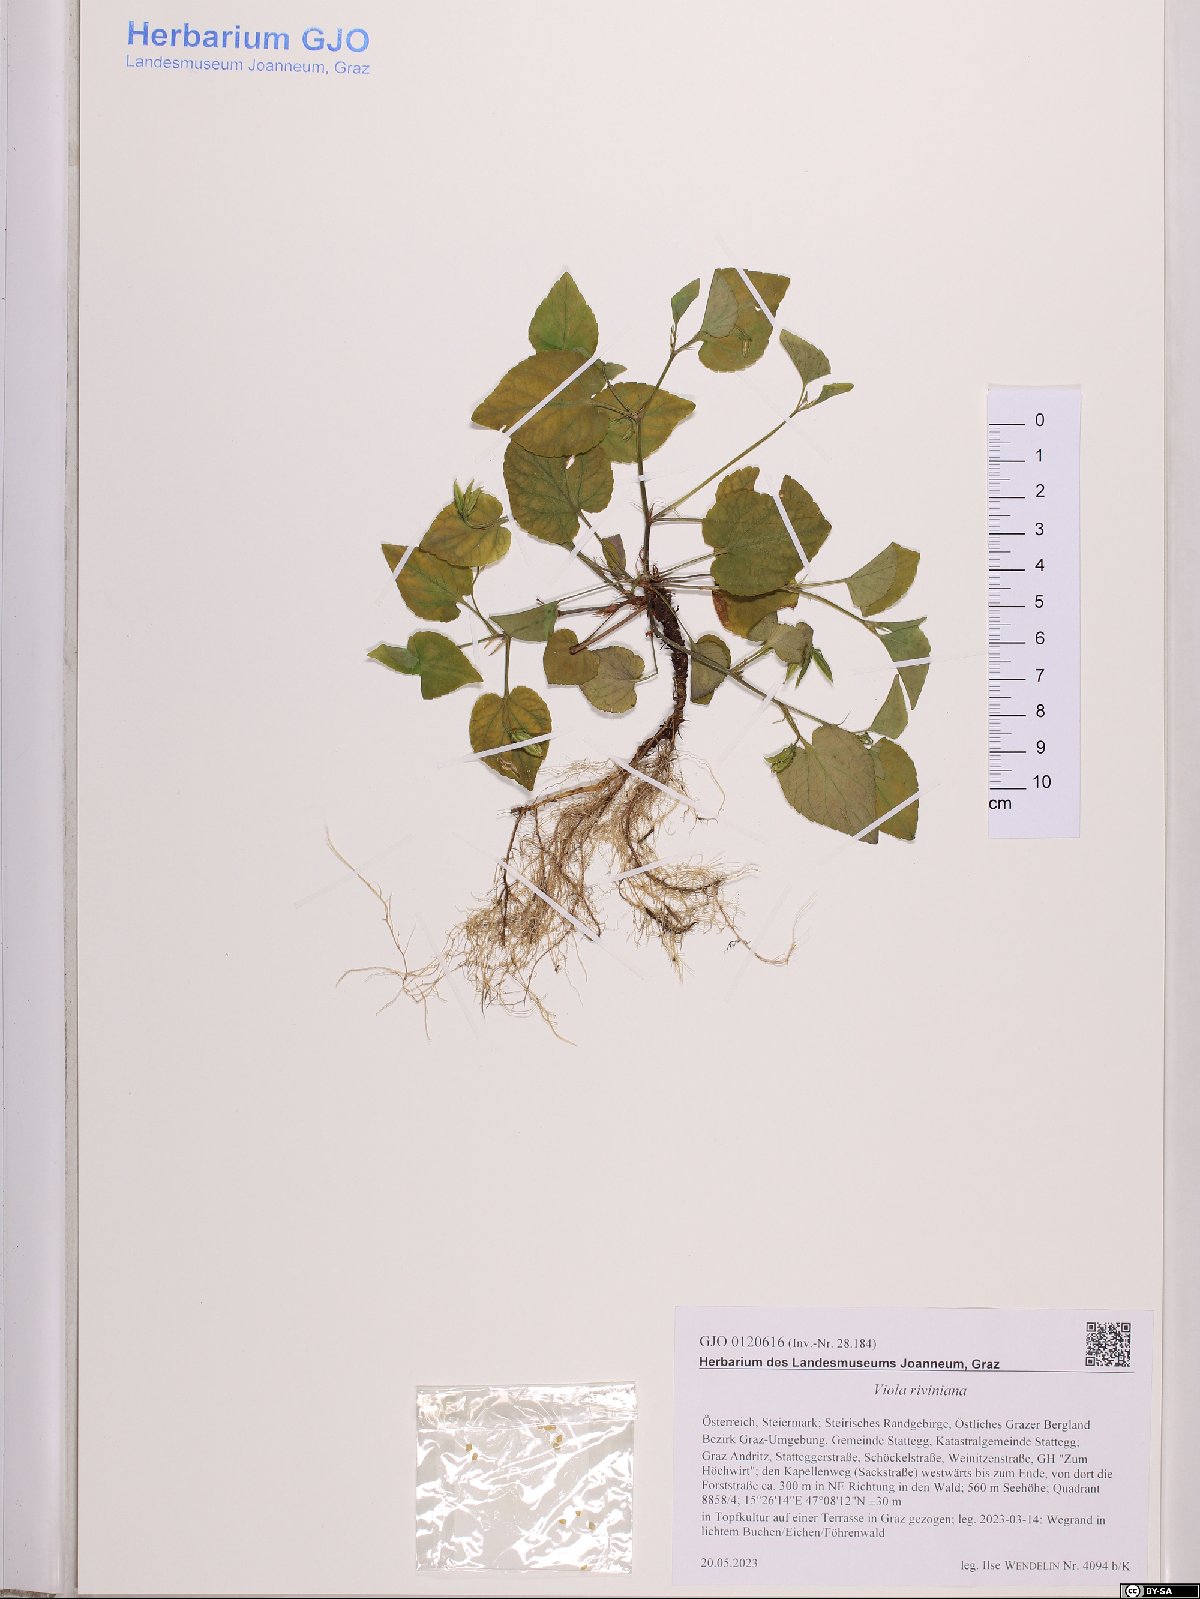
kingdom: Plantae
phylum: Tracheophyta
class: Magnoliopsida
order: Malpighiales
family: Violaceae
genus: Viola
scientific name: Viola riviniana
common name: Common dog-violet
